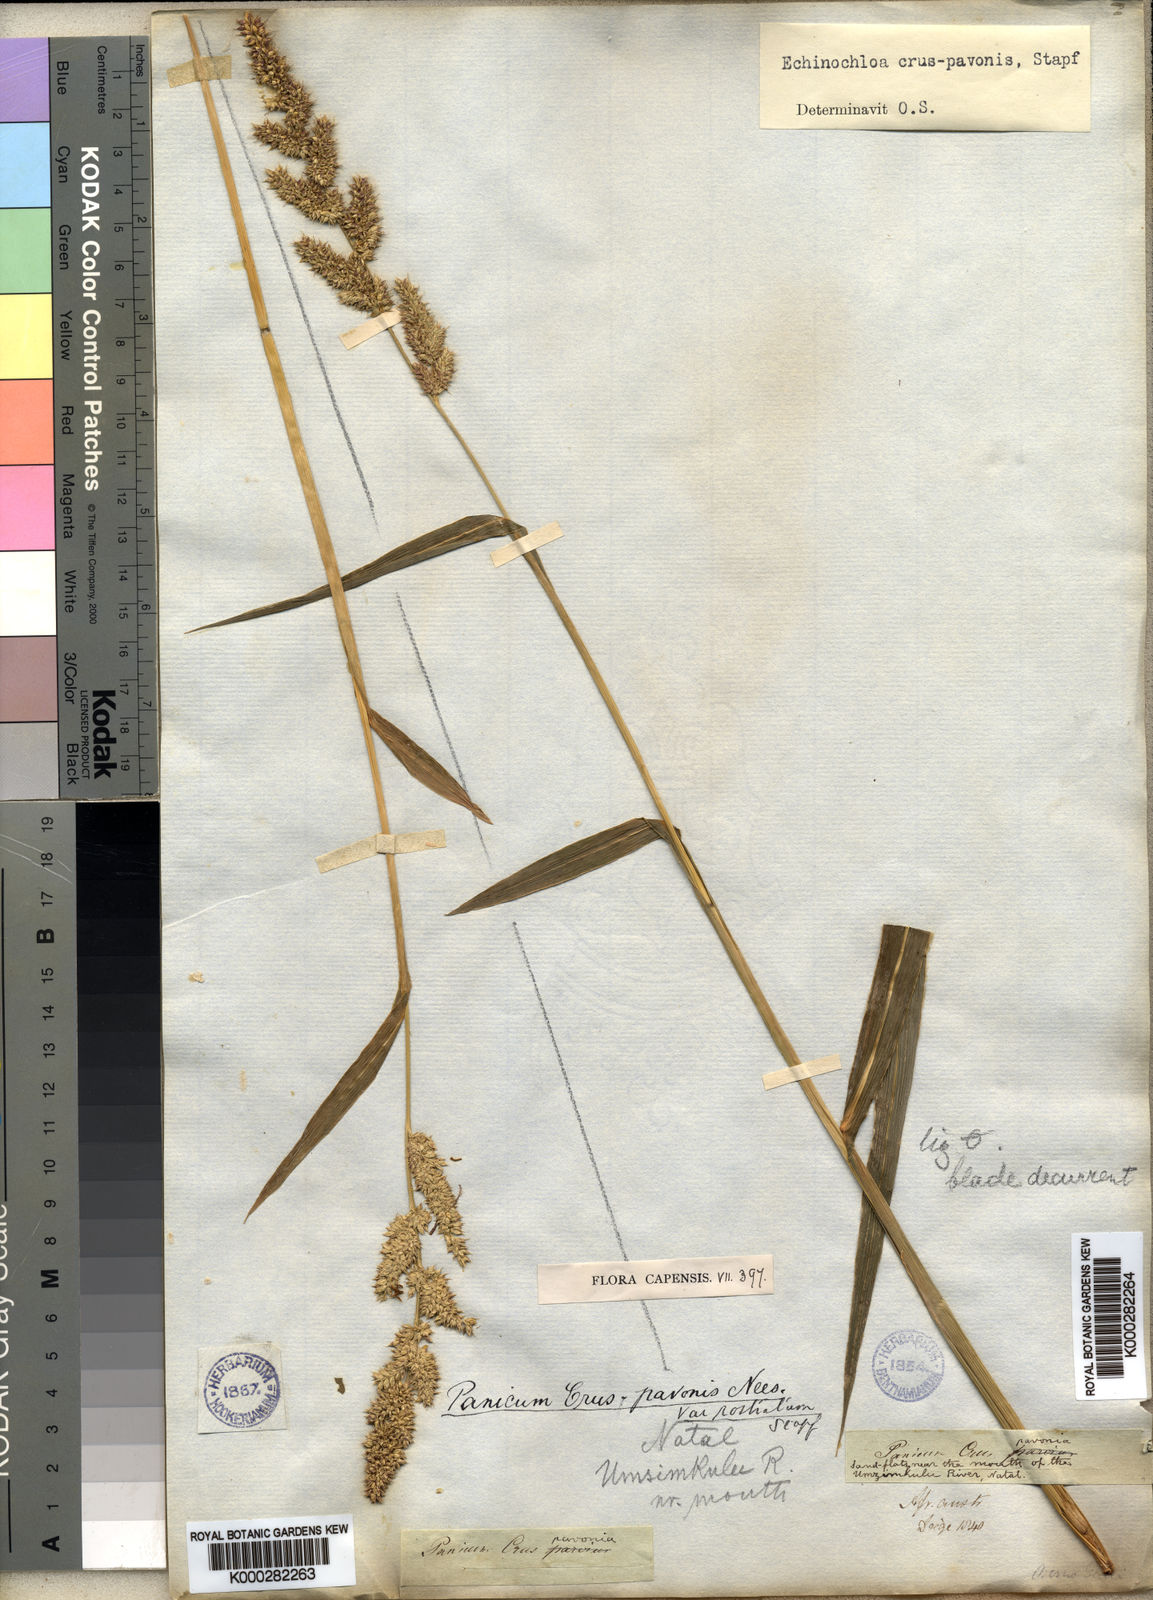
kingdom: Plantae
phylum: Tracheophyta
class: Liliopsida
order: Poales
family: Poaceae
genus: Echinochloa
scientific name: Echinochloa crus-pavonis
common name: Gulf cockspur grass
